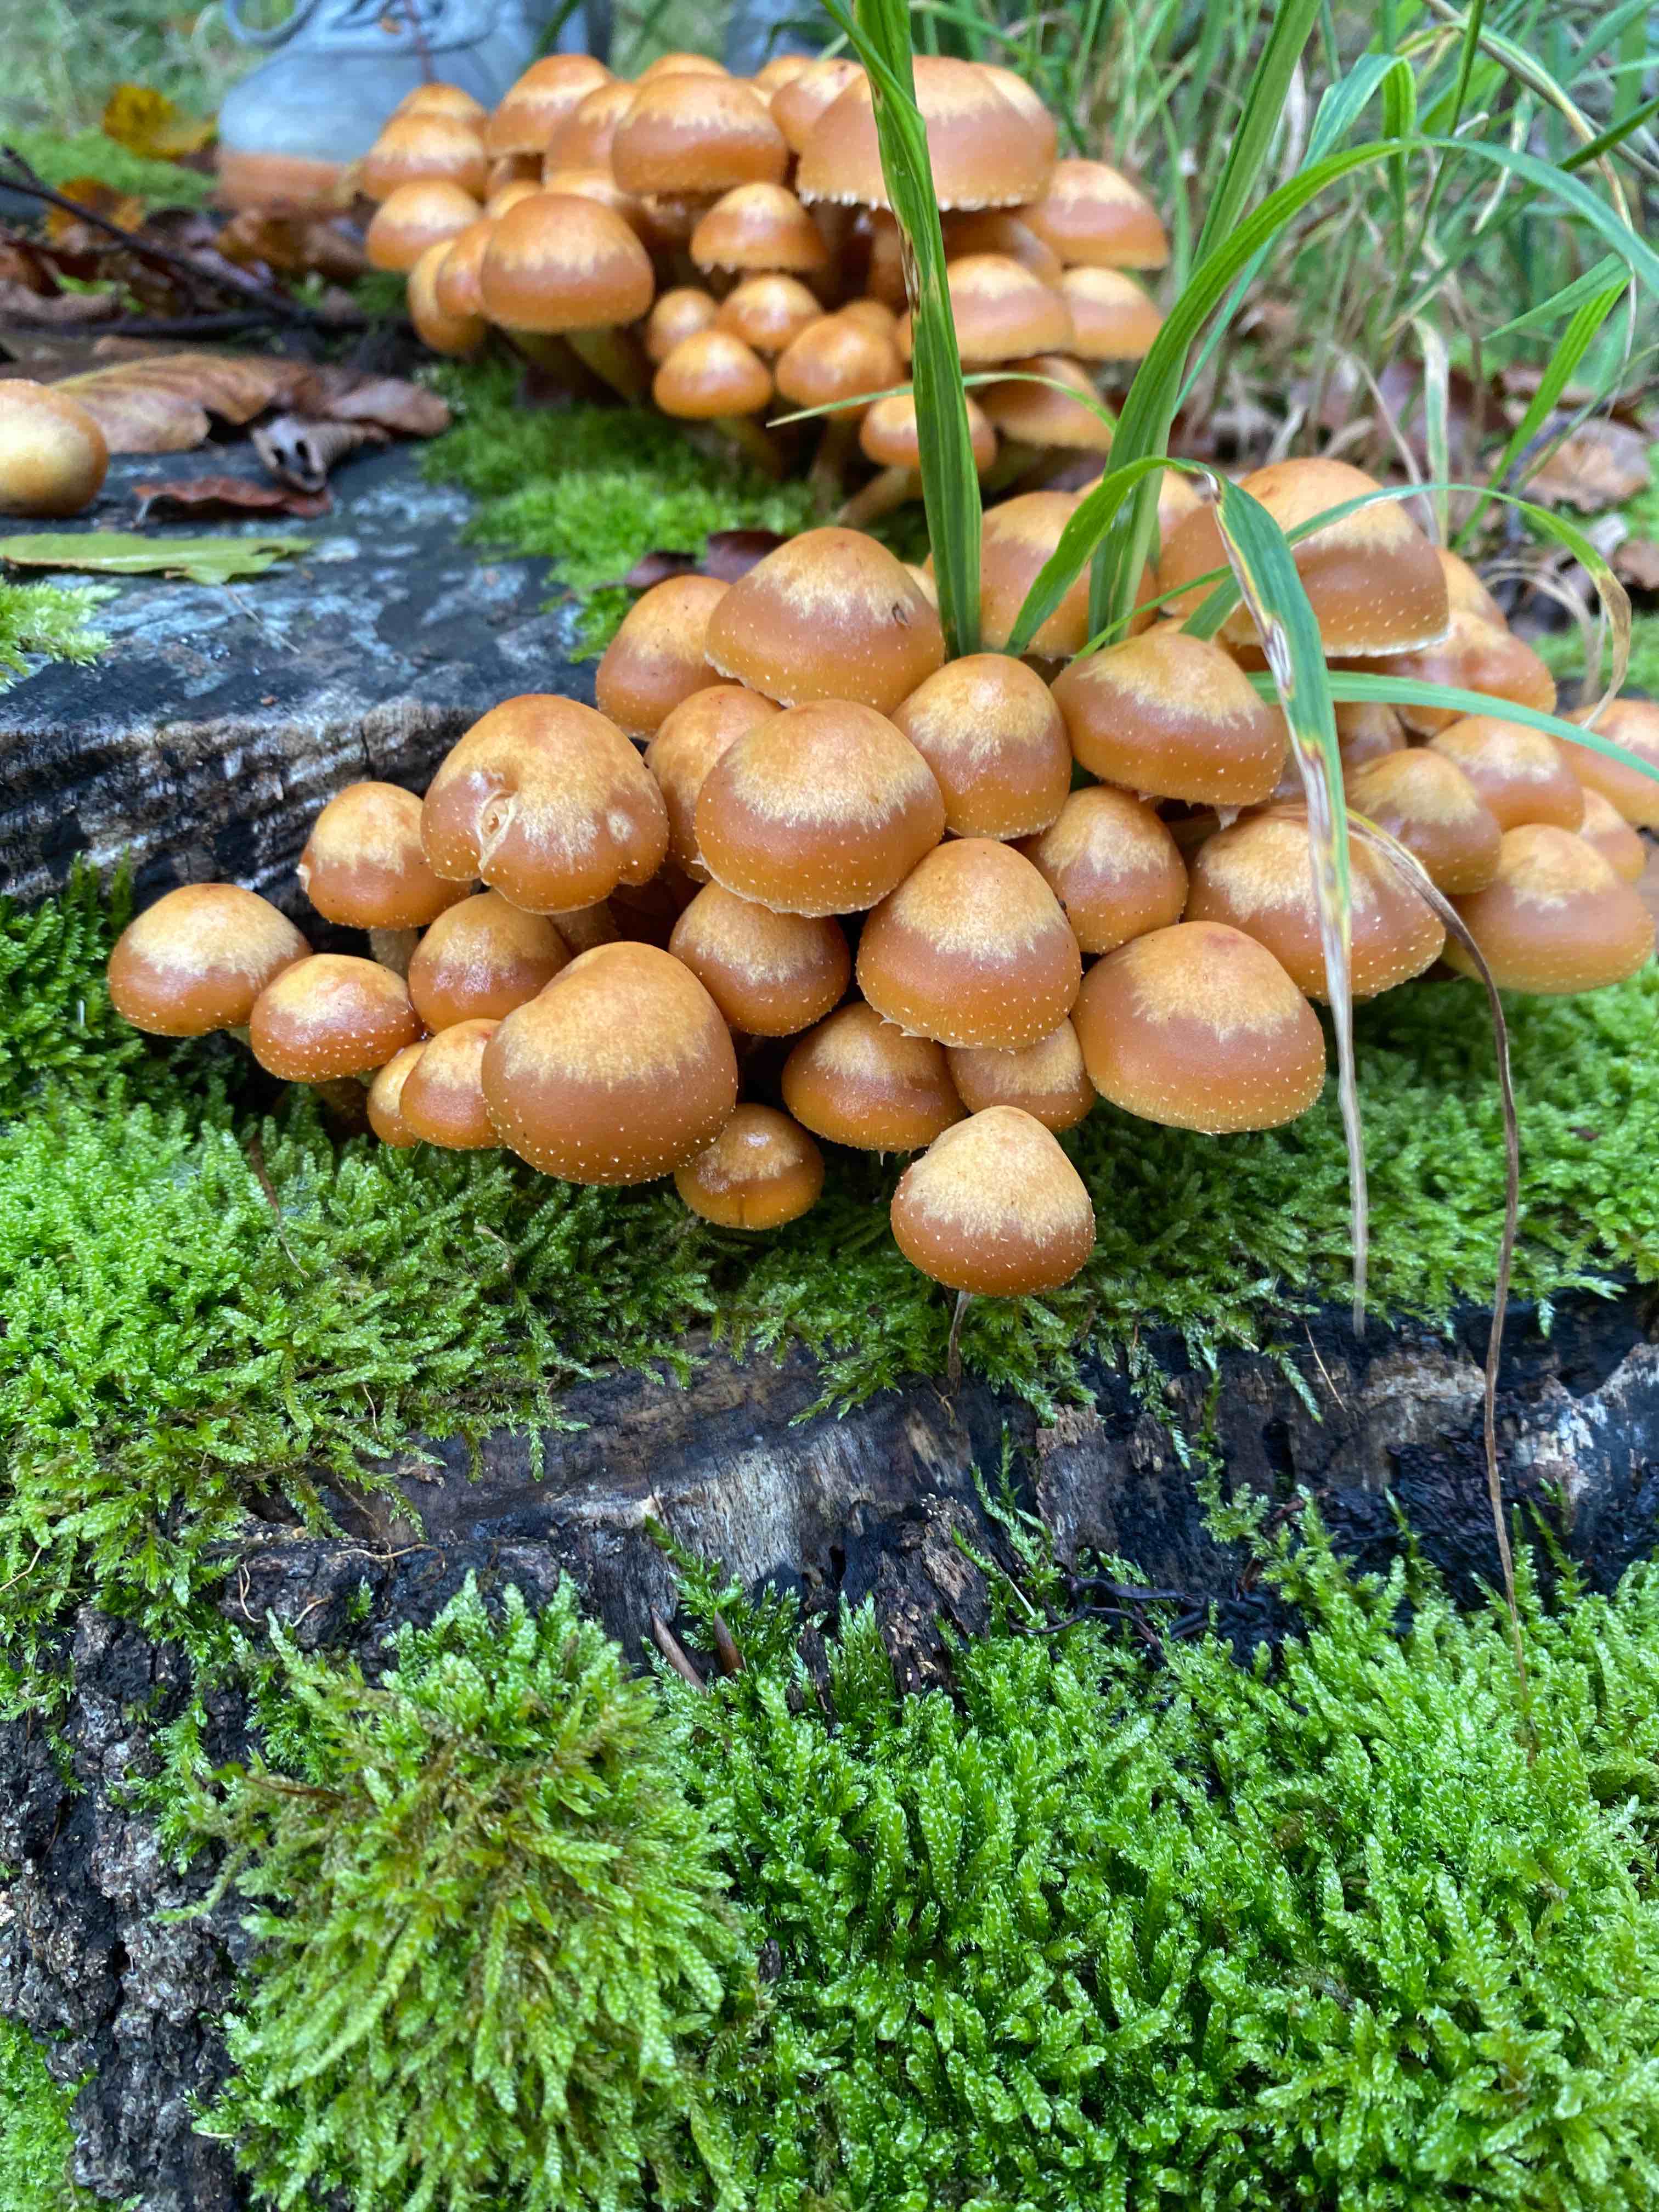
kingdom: Fungi
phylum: Basidiomycota
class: Agaricomycetes
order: Agaricales
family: Strophariaceae
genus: Kuehneromyces
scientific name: Kuehneromyces mutabilis
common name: foranderlig skælhat
